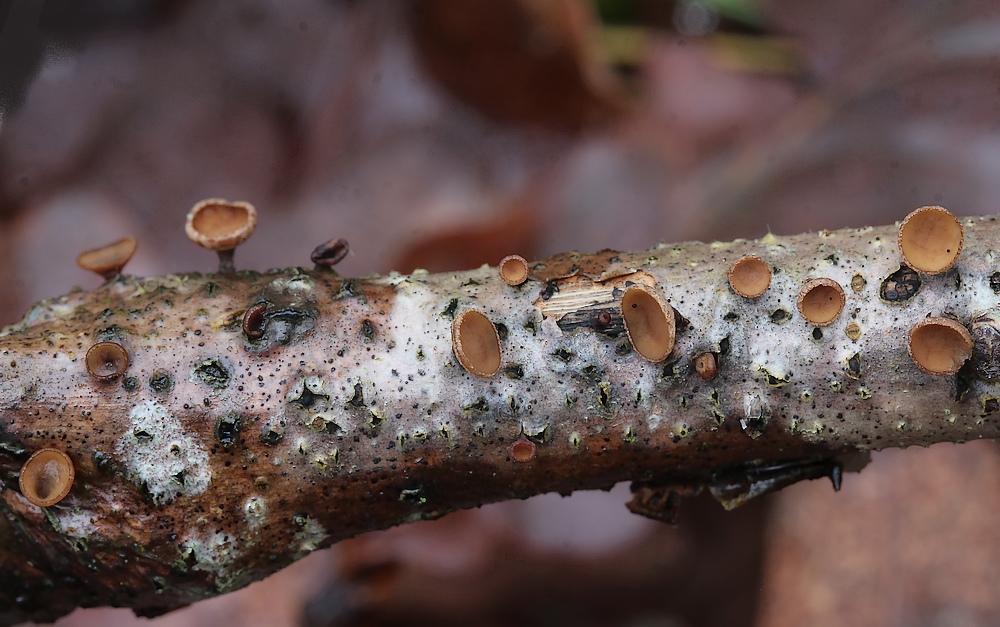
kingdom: Fungi
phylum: Ascomycota
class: Leotiomycetes
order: Helotiales
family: Rutstroemiaceae
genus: Rutstroemia
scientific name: Rutstroemia firma
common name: gren-brunskive
